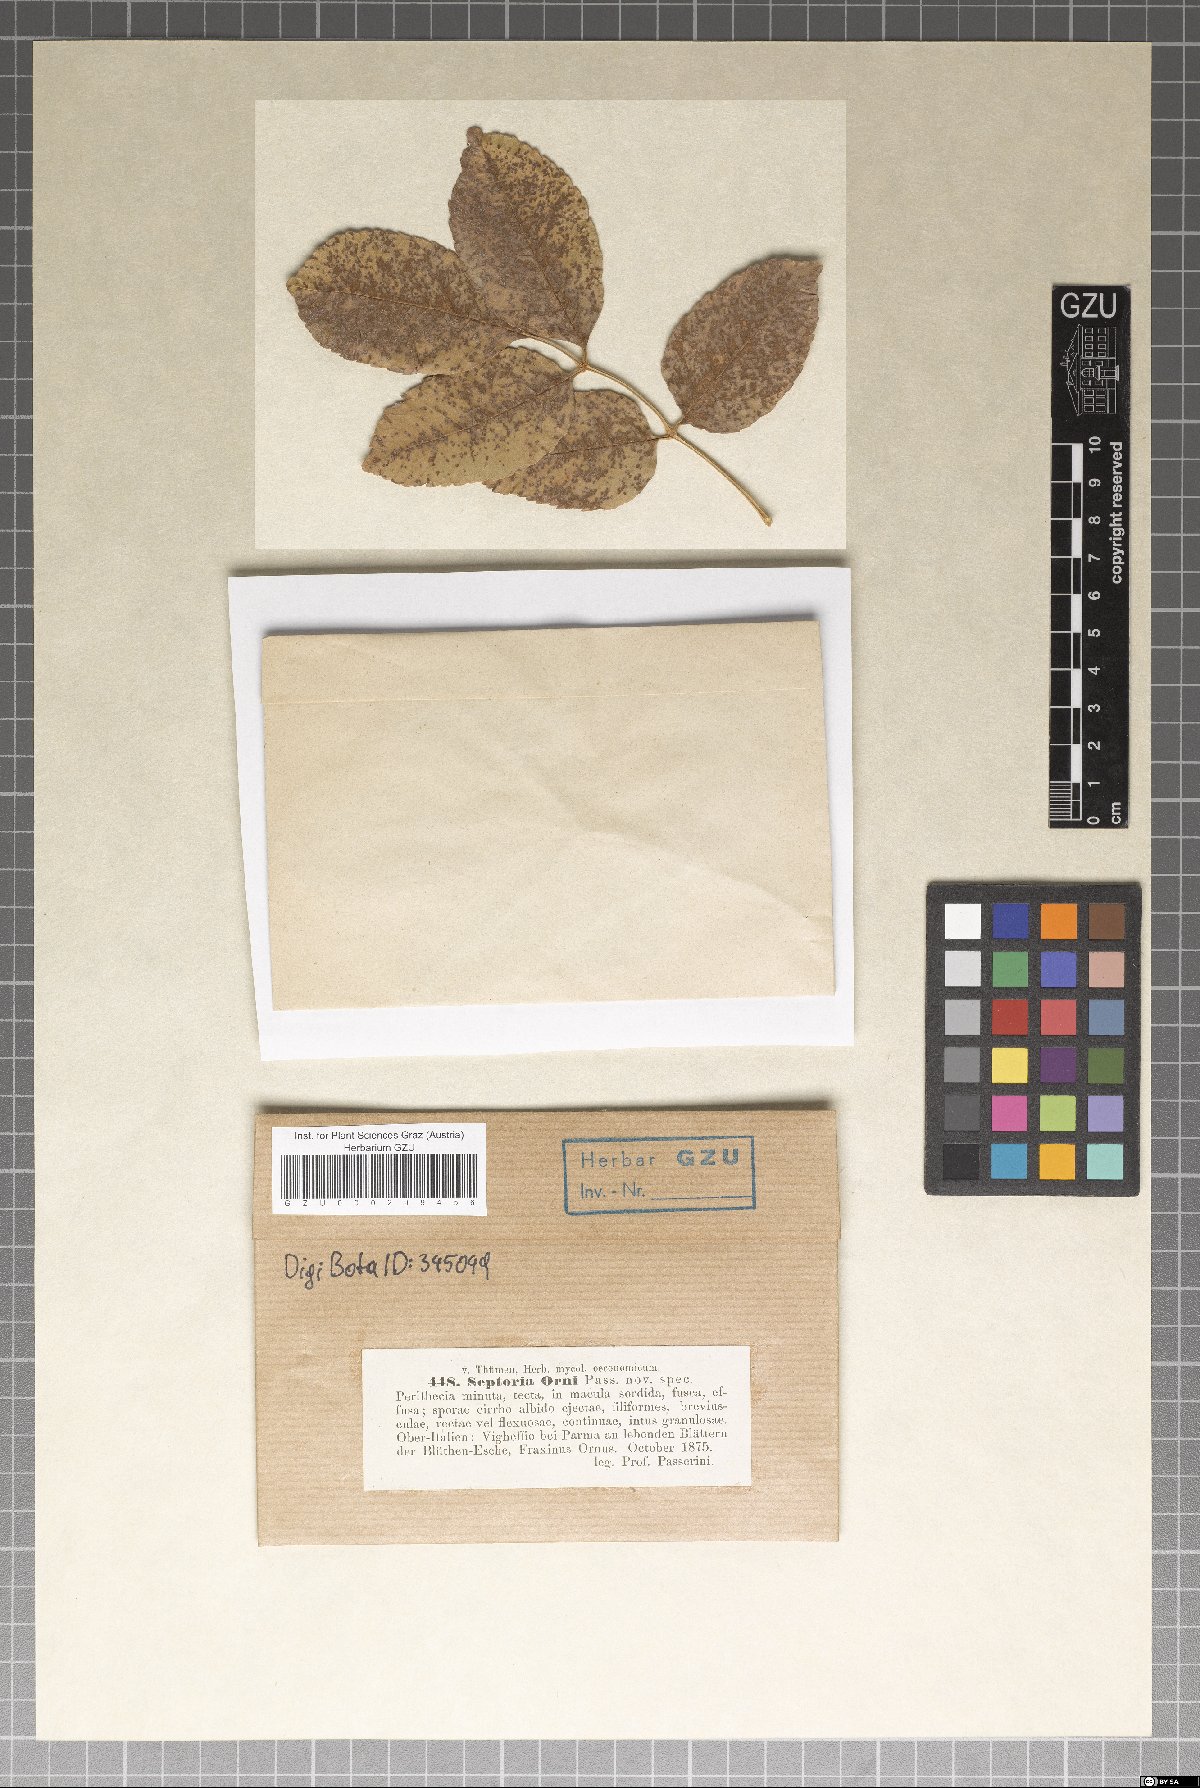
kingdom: Fungi
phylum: Ascomycota
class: Dothideomycetes
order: Mycosphaerellales
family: Mycosphaerellaceae
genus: Septoria
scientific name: Septoria
